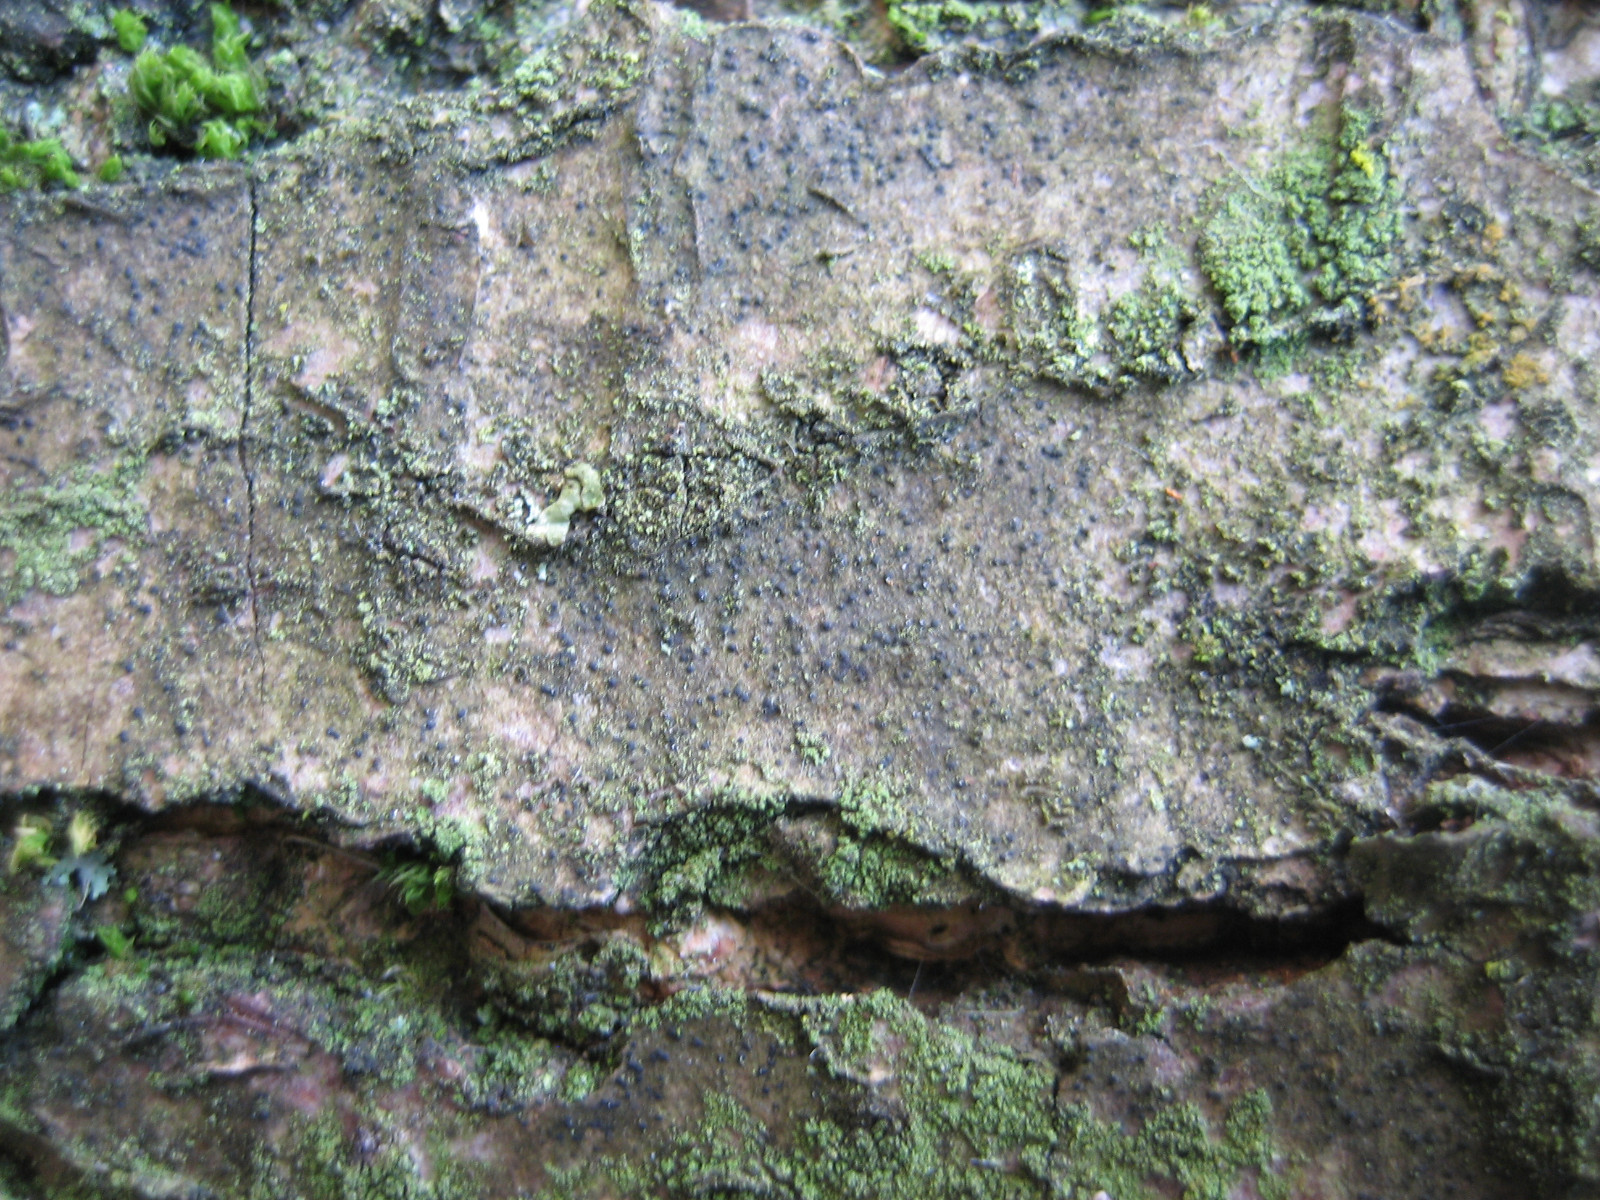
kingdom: Fungi
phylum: Ascomycota
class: Lecanoromycetes
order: Ostropales
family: Porinaceae
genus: Pseudosagedia
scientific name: Pseudosagedia aenea
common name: grønlig porina
